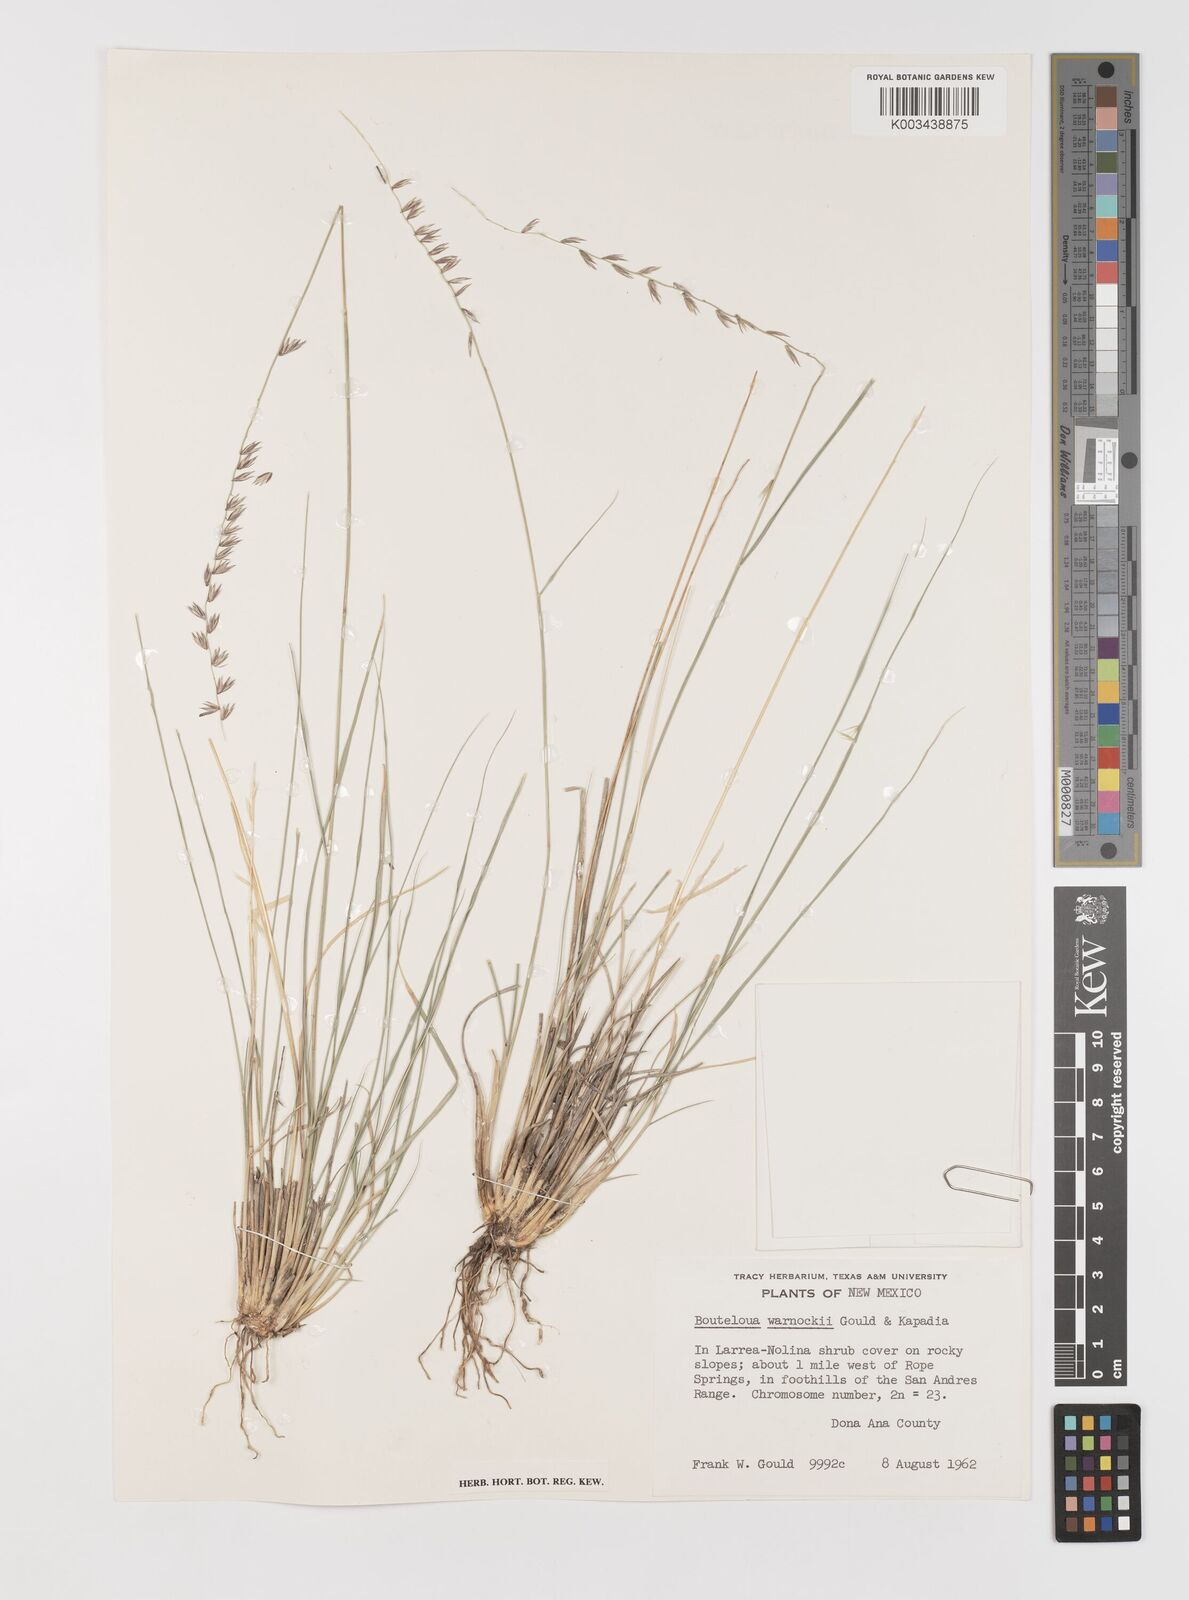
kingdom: Plantae
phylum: Tracheophyta
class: Liliopsida
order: Poales
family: Poaceae
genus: Bouteloua
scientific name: Bouteloua warnockii
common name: Warnock's grama
